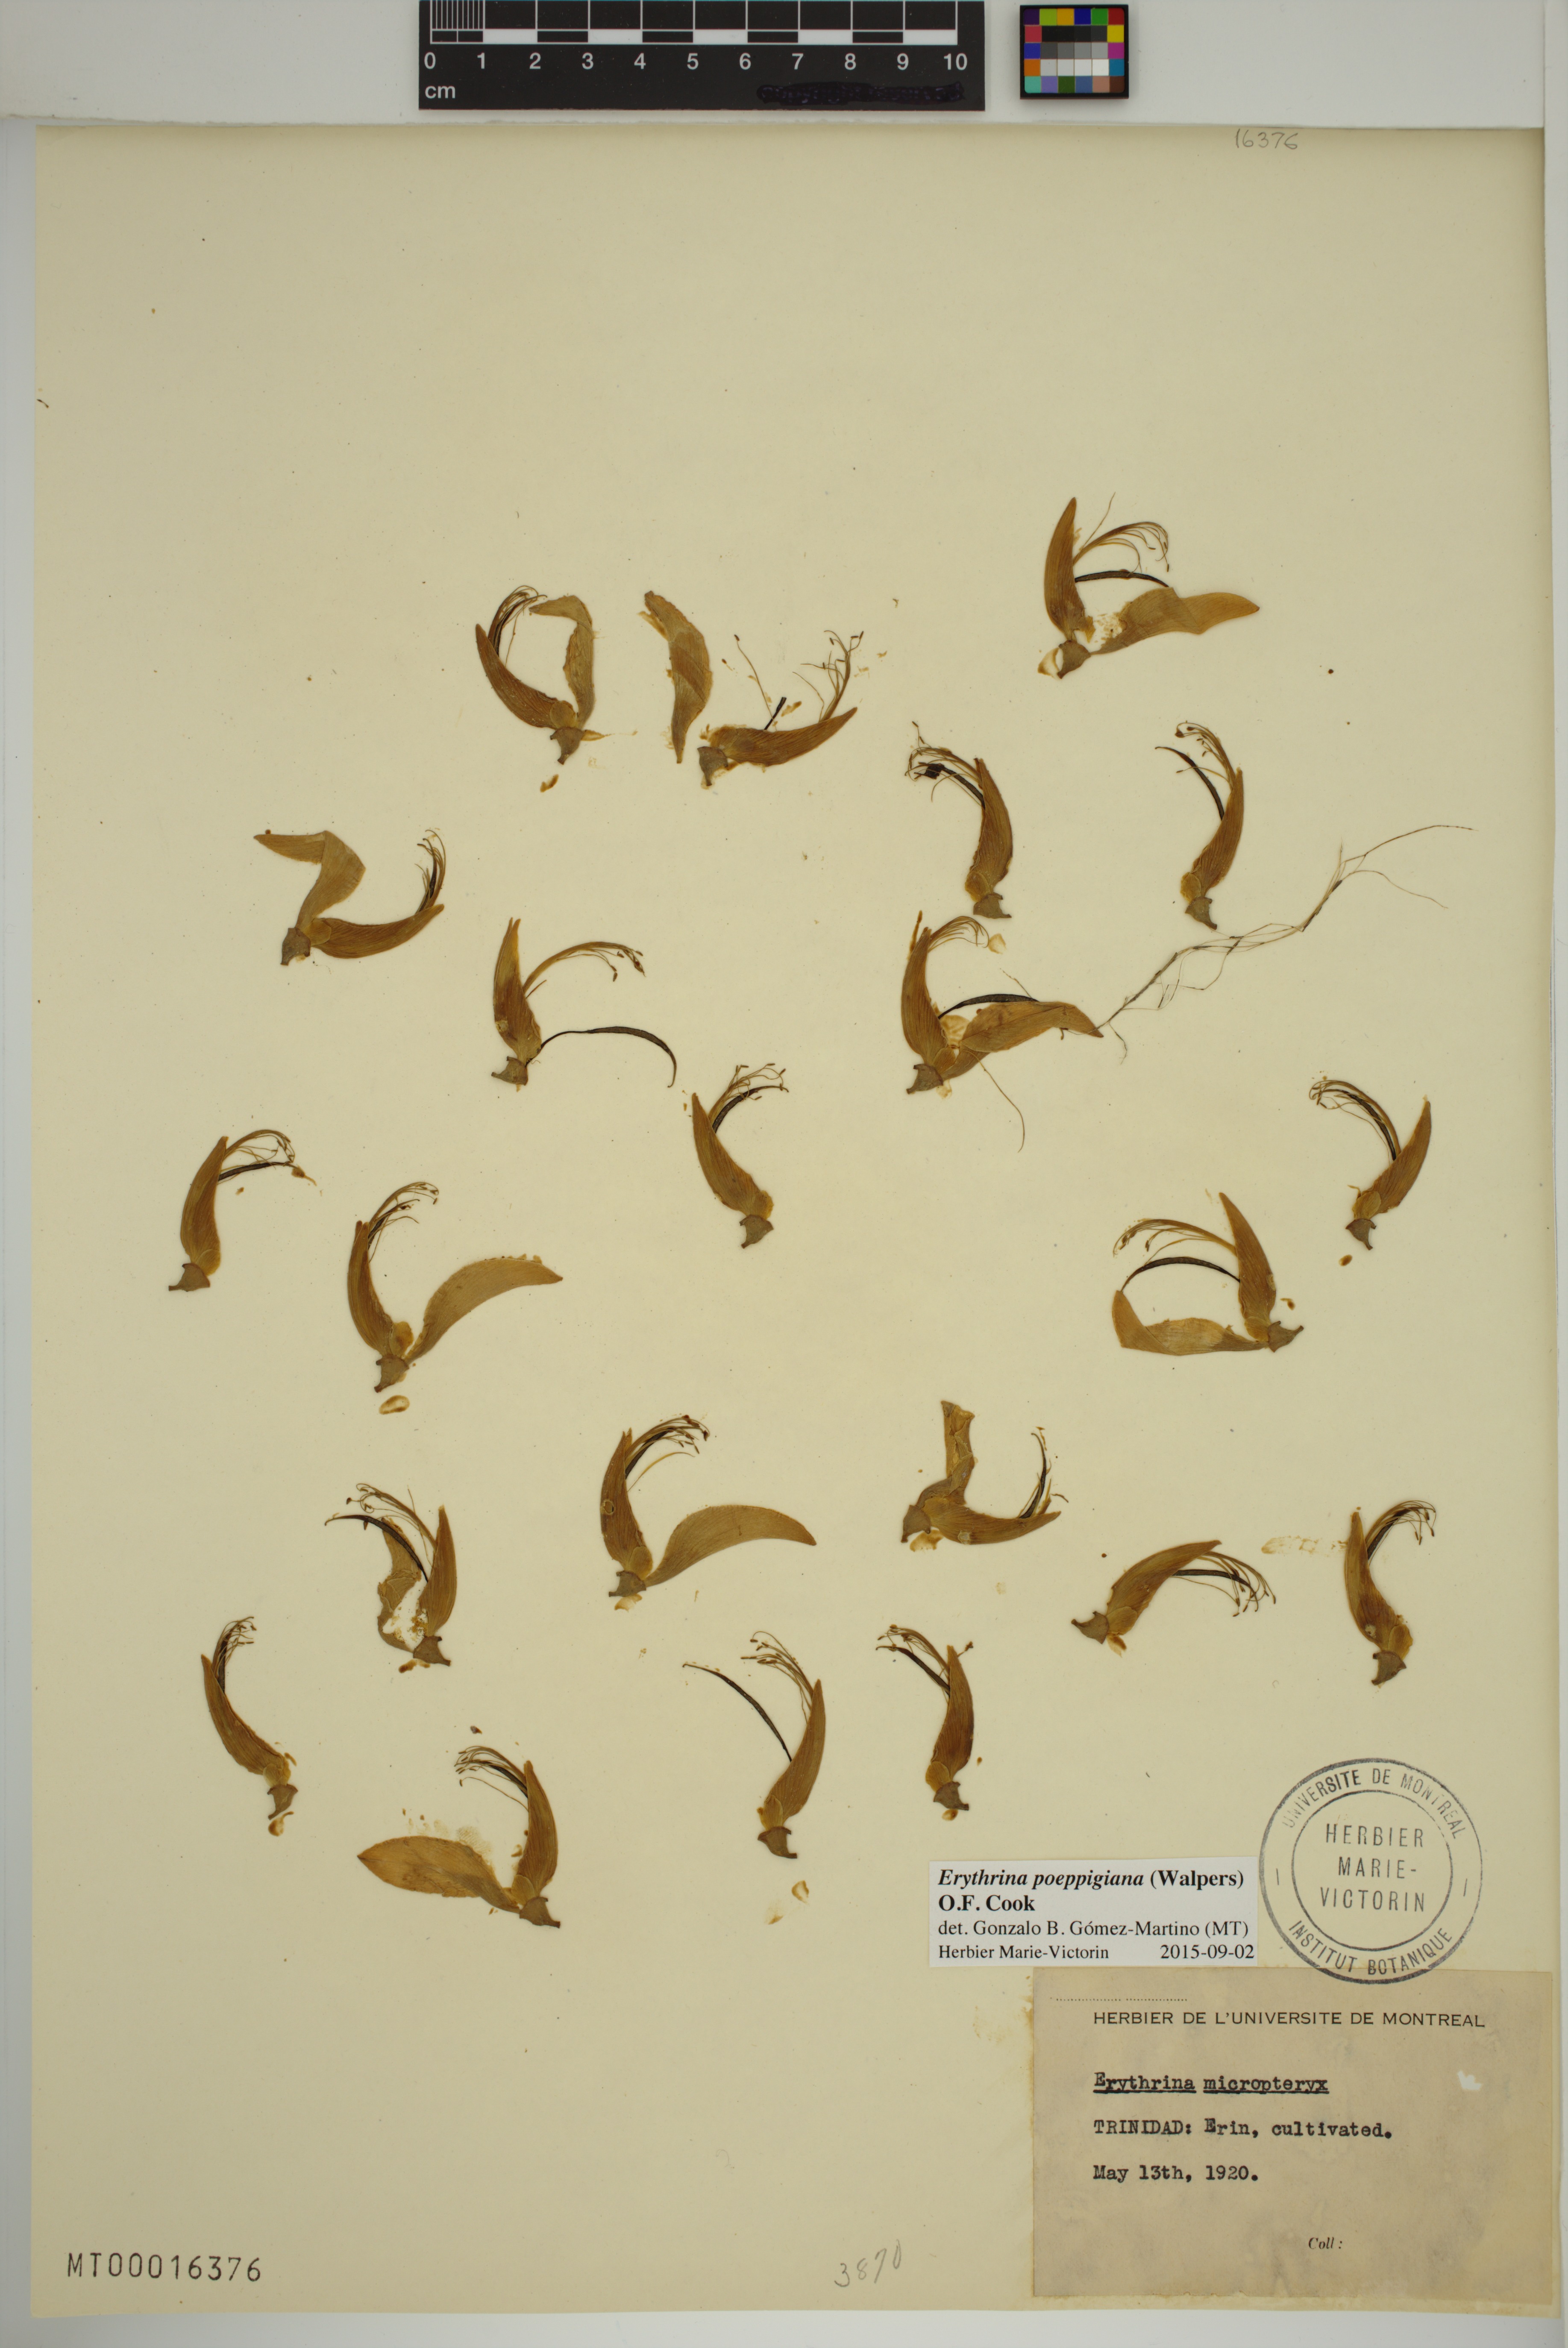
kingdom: Plantae
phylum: Tracheophyta
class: Magnoliopsida
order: Fabales
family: Fabaceae
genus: Erythrina
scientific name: Erythrina poeppigiana
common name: Coral tree
